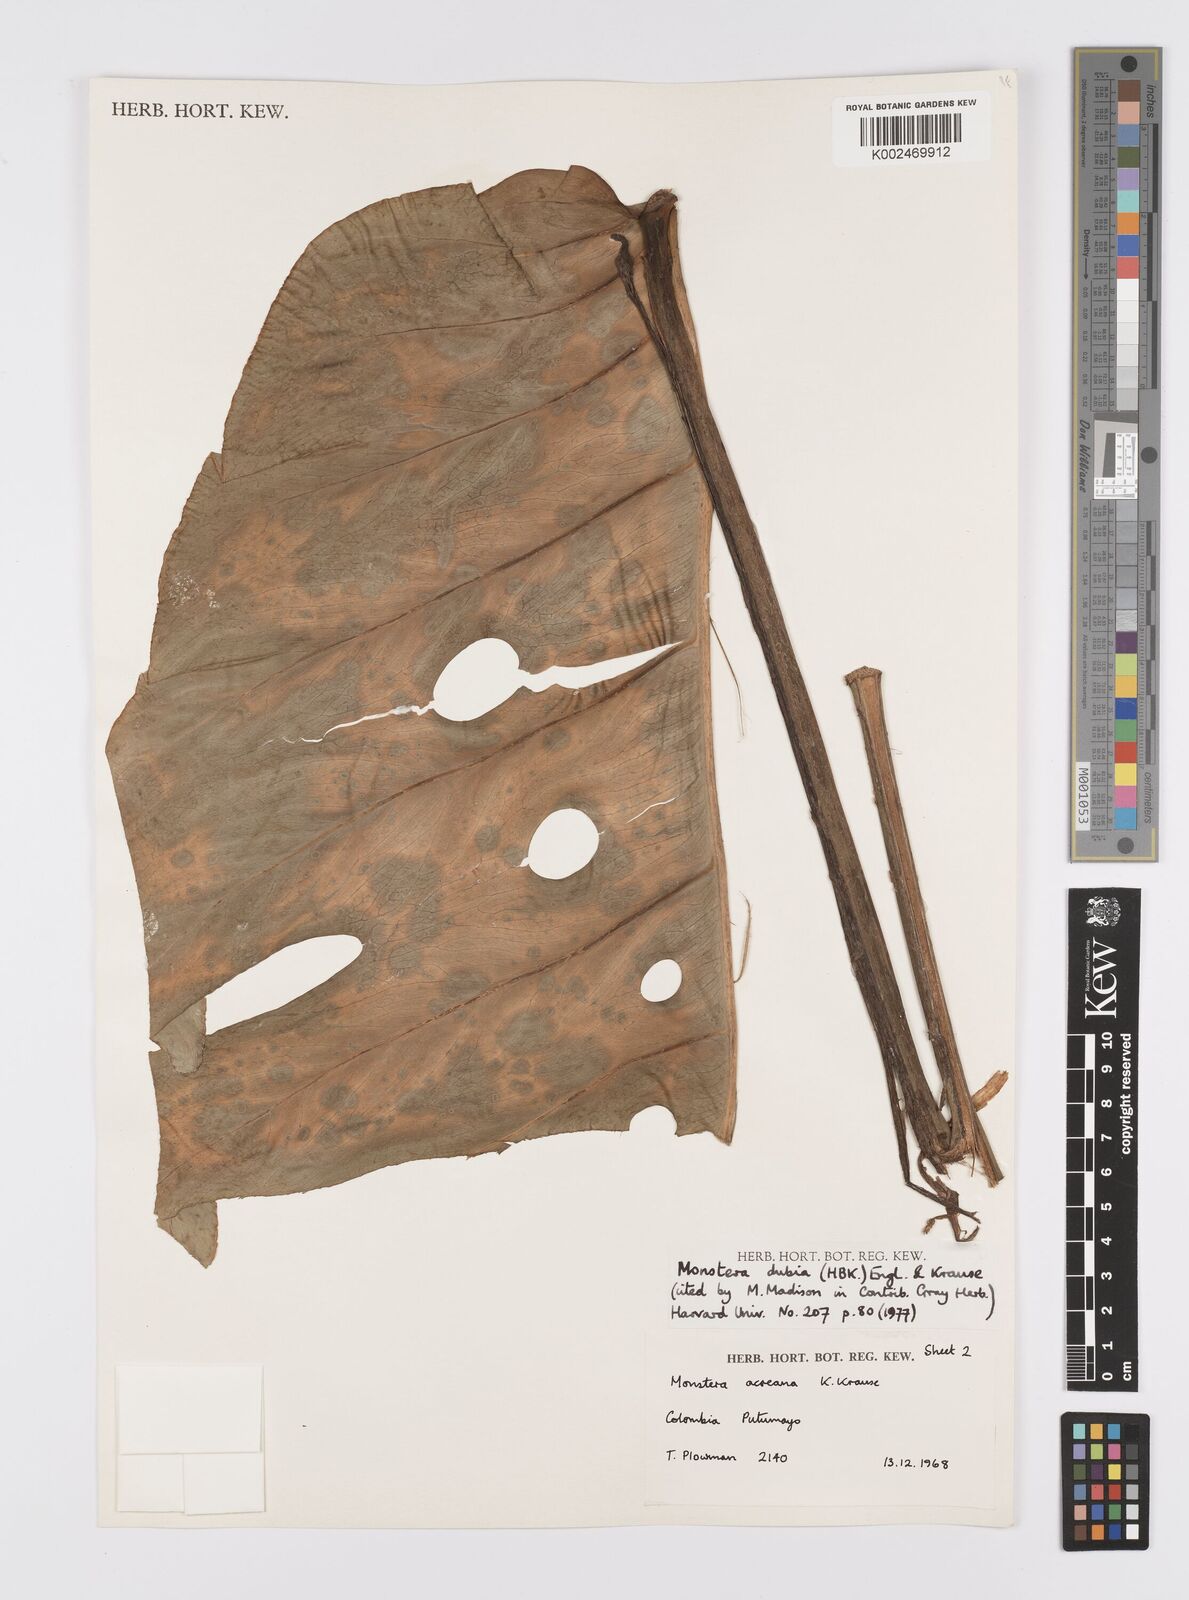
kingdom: Plantae
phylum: Tracheophyta
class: Liliopsida
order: Alismatales
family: Araceae
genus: Monstera
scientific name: Monstera dubia
